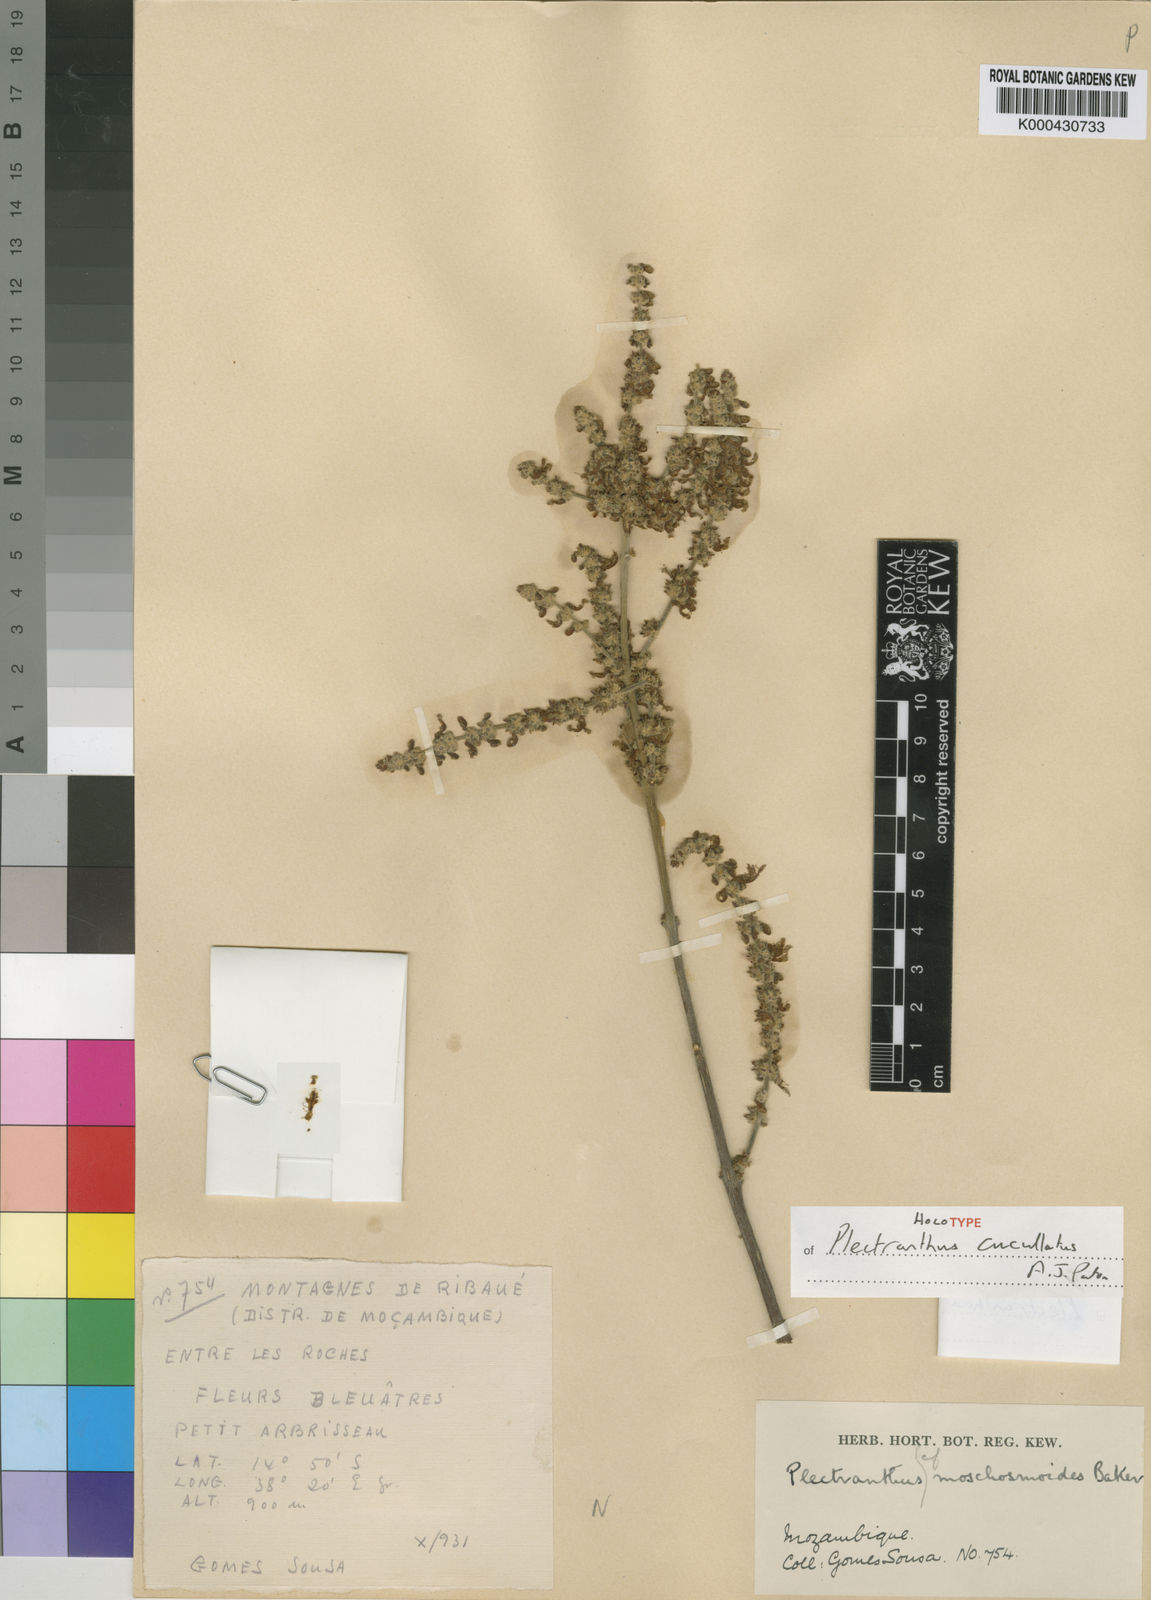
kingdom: Plantae
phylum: Tracheophyta
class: Magnoliopsida
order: Lamiales
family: Lamiaceae
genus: Coleus
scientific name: Coleus cucullatus
